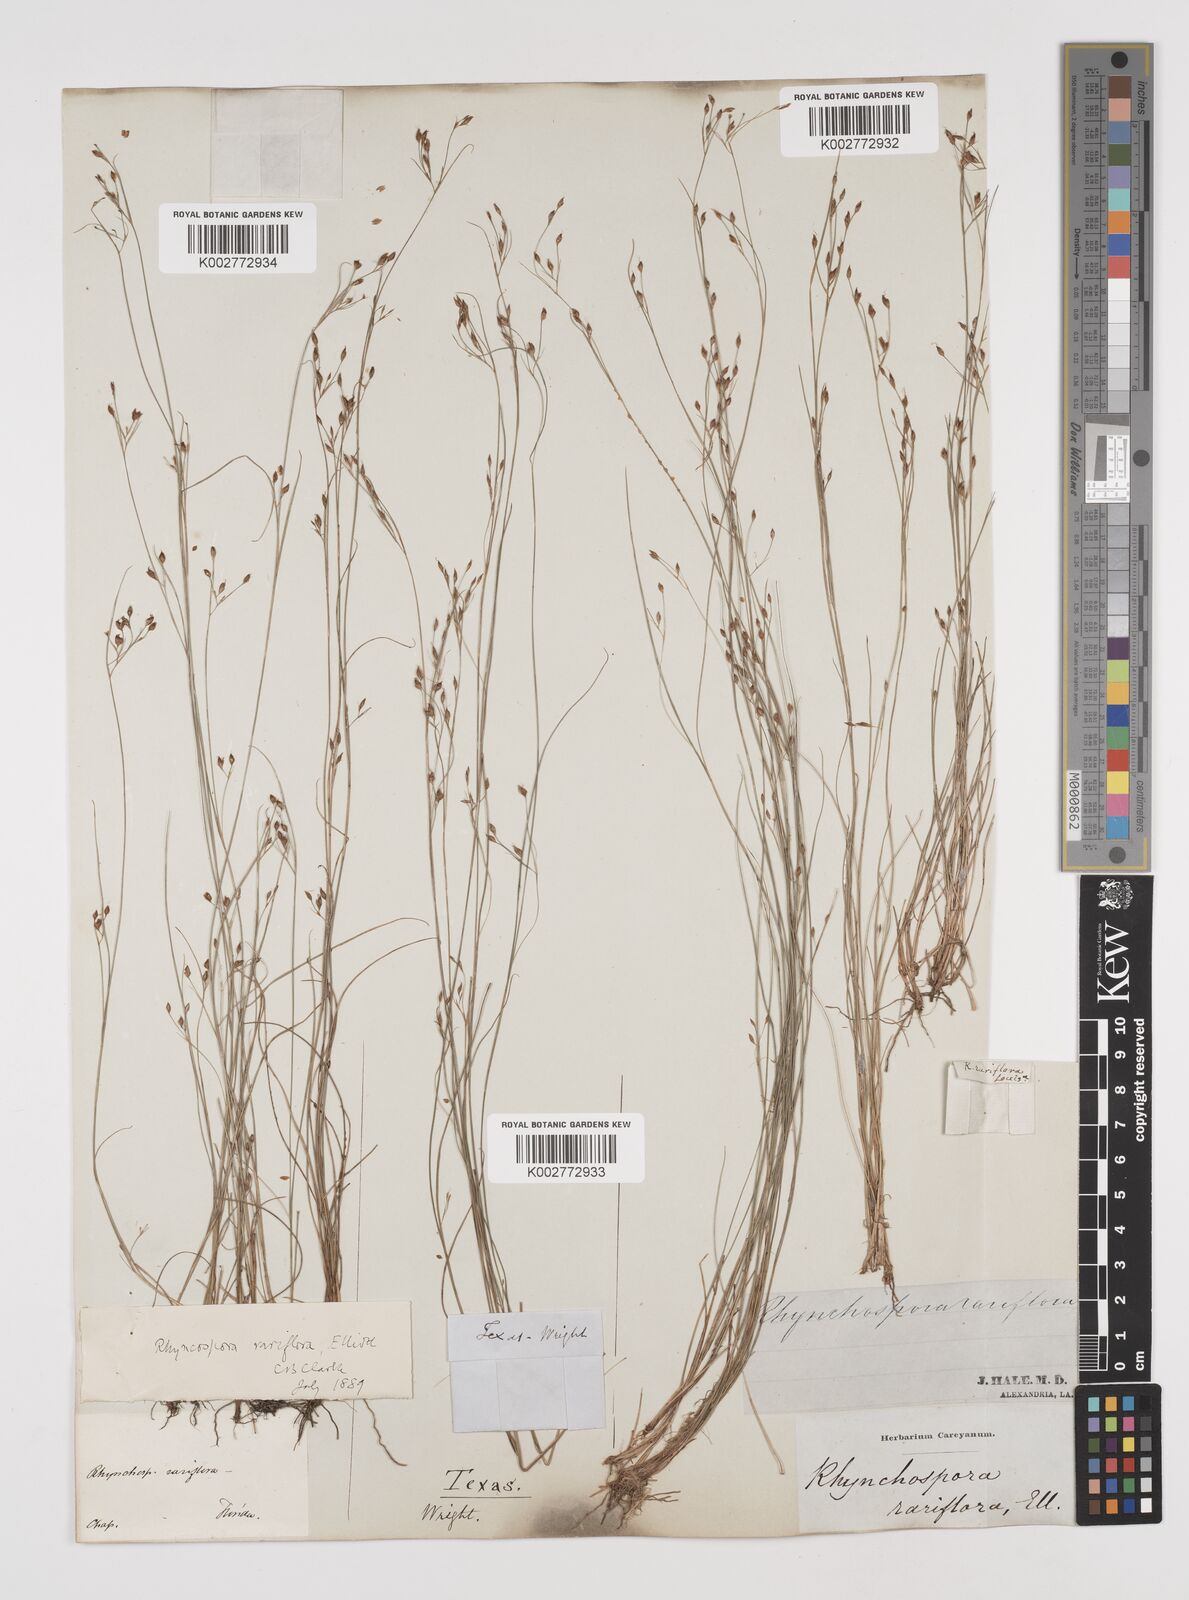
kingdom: Plantae
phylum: Tracheophyta
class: Liliopsida
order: Poales
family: Cyperaceae
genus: Rhynchospora
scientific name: Rhynchospora rariflora
